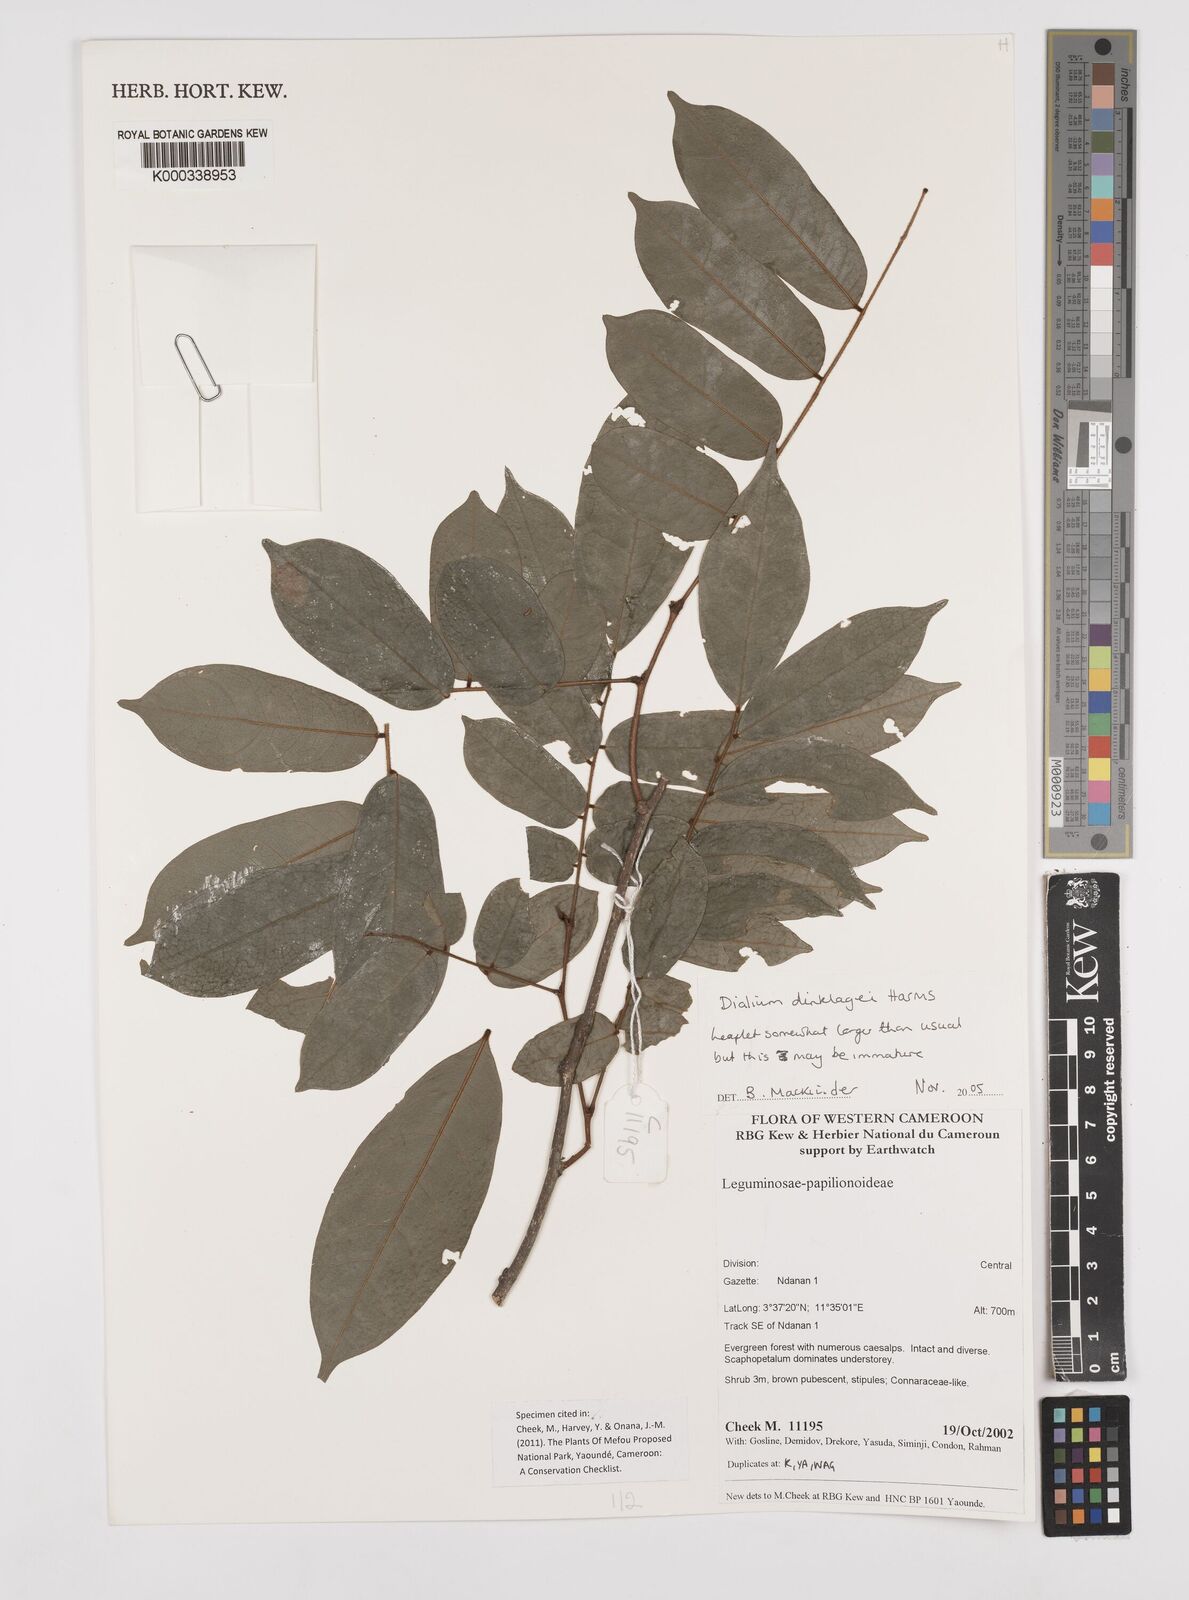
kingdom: Plantae
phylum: Tracheophyta
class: Magnoliopsida
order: Fabales
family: Fabaceae
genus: Dialium
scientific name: Dialium dinklagei
